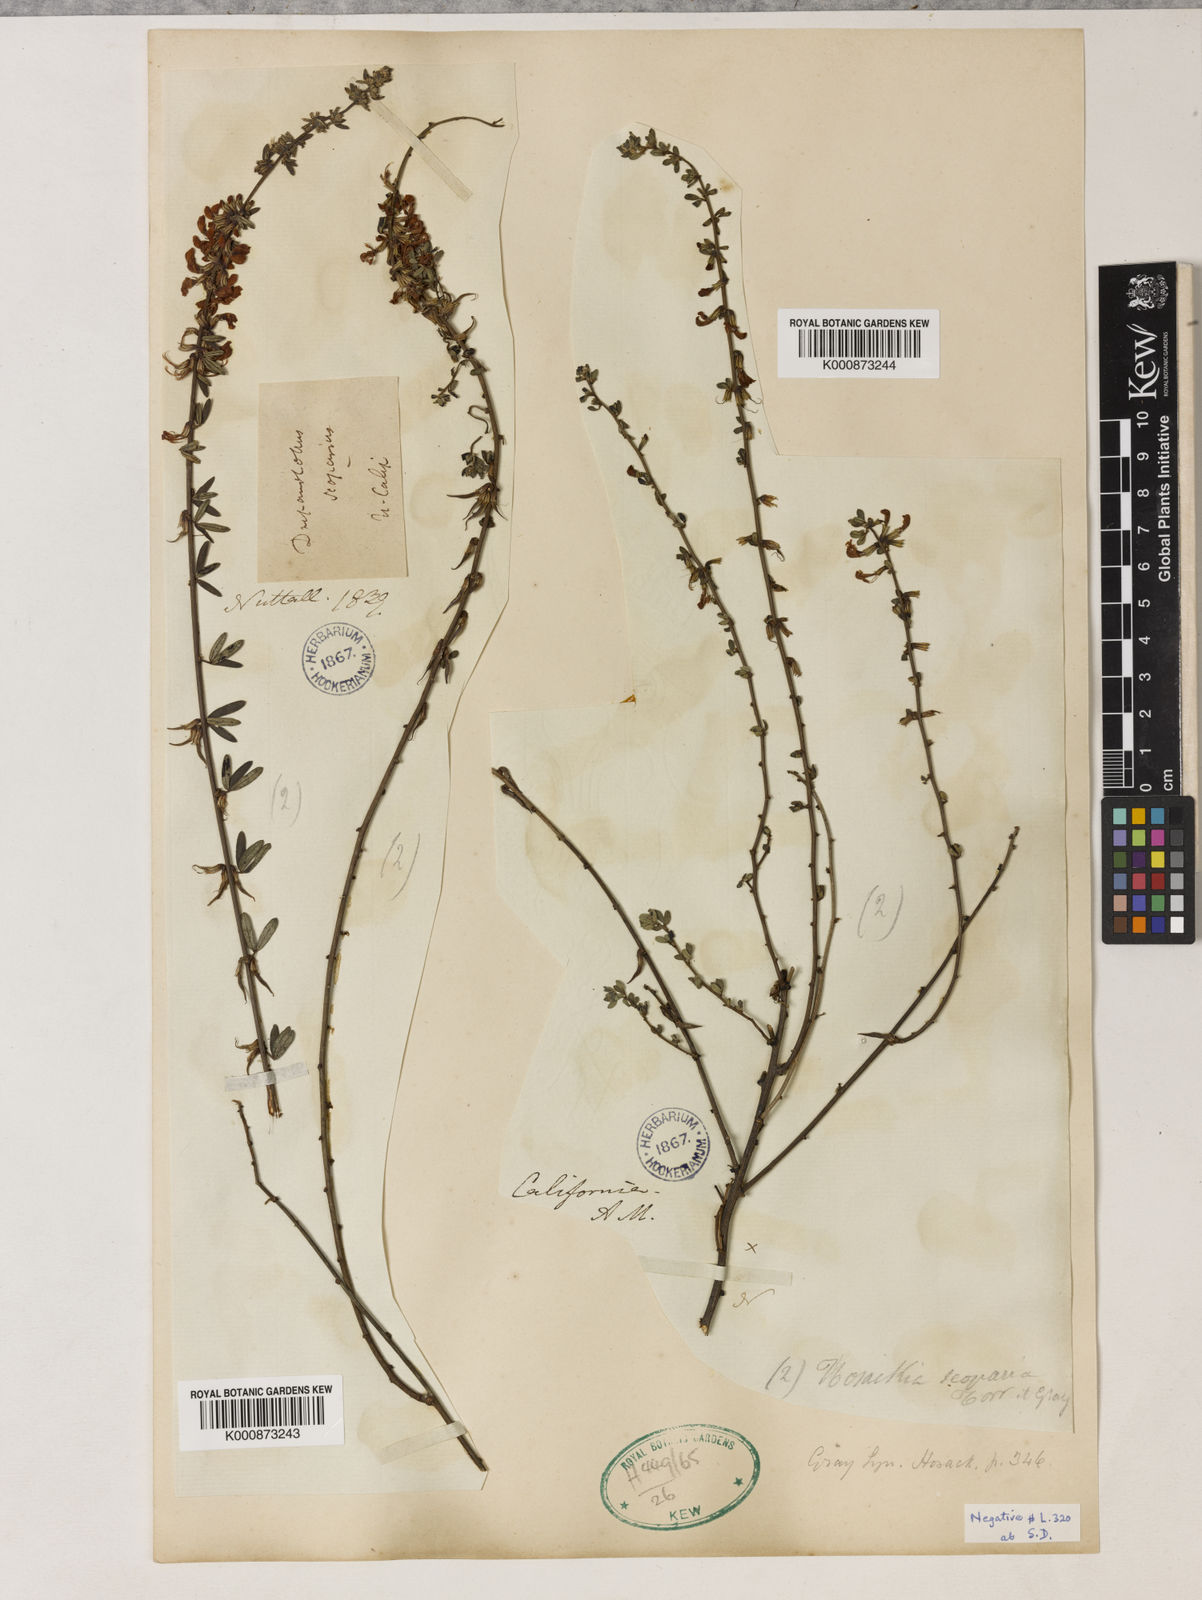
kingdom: Plantae
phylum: Tracheophyta
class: Magnoliopsida
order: Fabales
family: Fabaceae
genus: Acmispon
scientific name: Acmispon glaber
